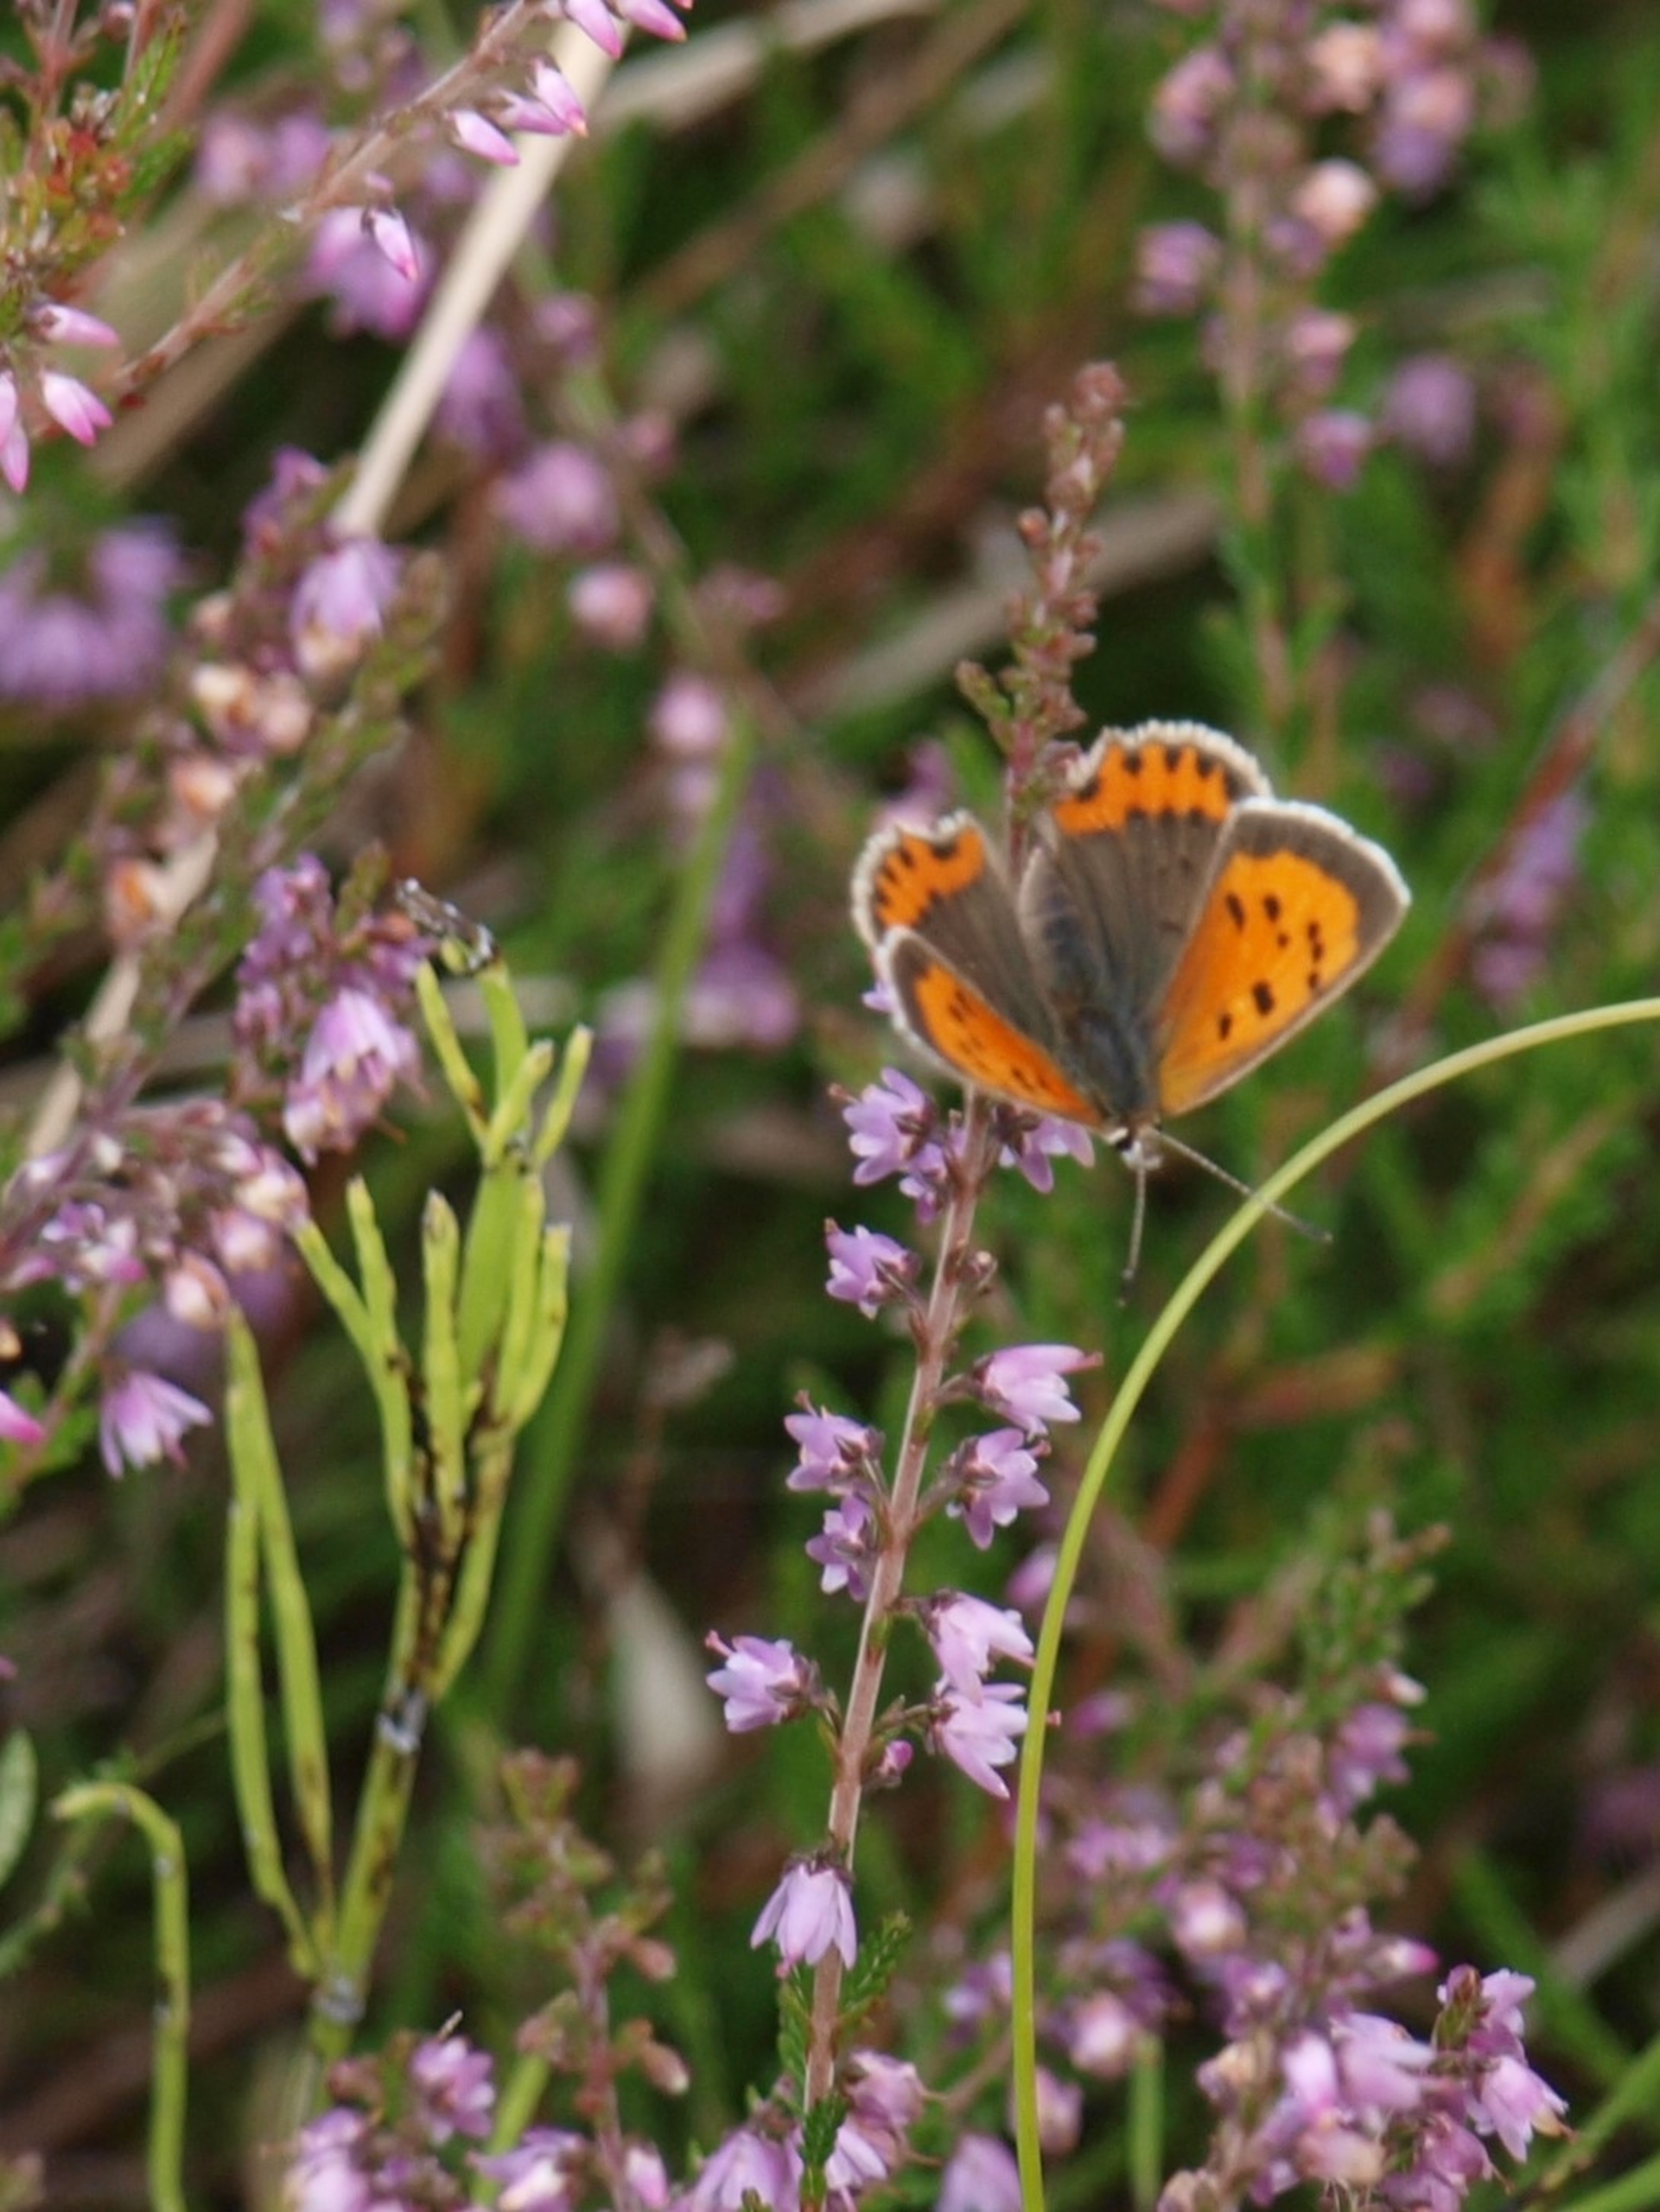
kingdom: Animalia
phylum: Arthropoda
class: Insecta
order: Lepidoptera
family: Lycaenidae
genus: Lycaena
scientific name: Lycaena phlaeas
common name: Lille ildfugl
